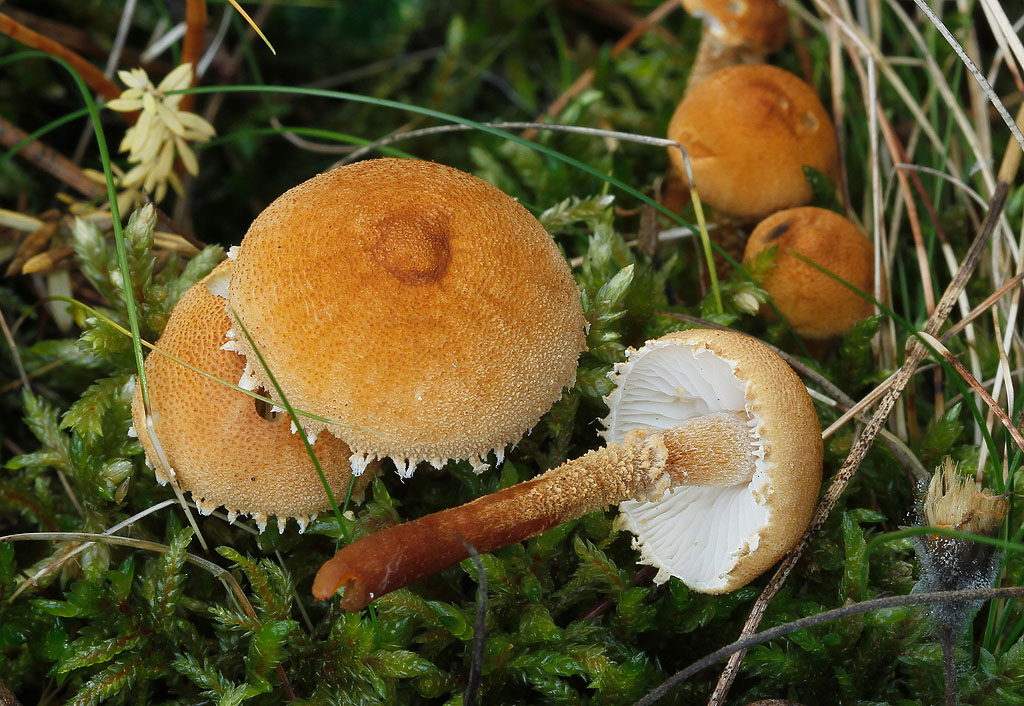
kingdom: Fungi
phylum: Basidiomycota
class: Agaricomycetes
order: Agaricales
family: Tricholomataceae
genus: Cystoderma
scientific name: Cystoderma amianthinum
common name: okkergul grynhat
